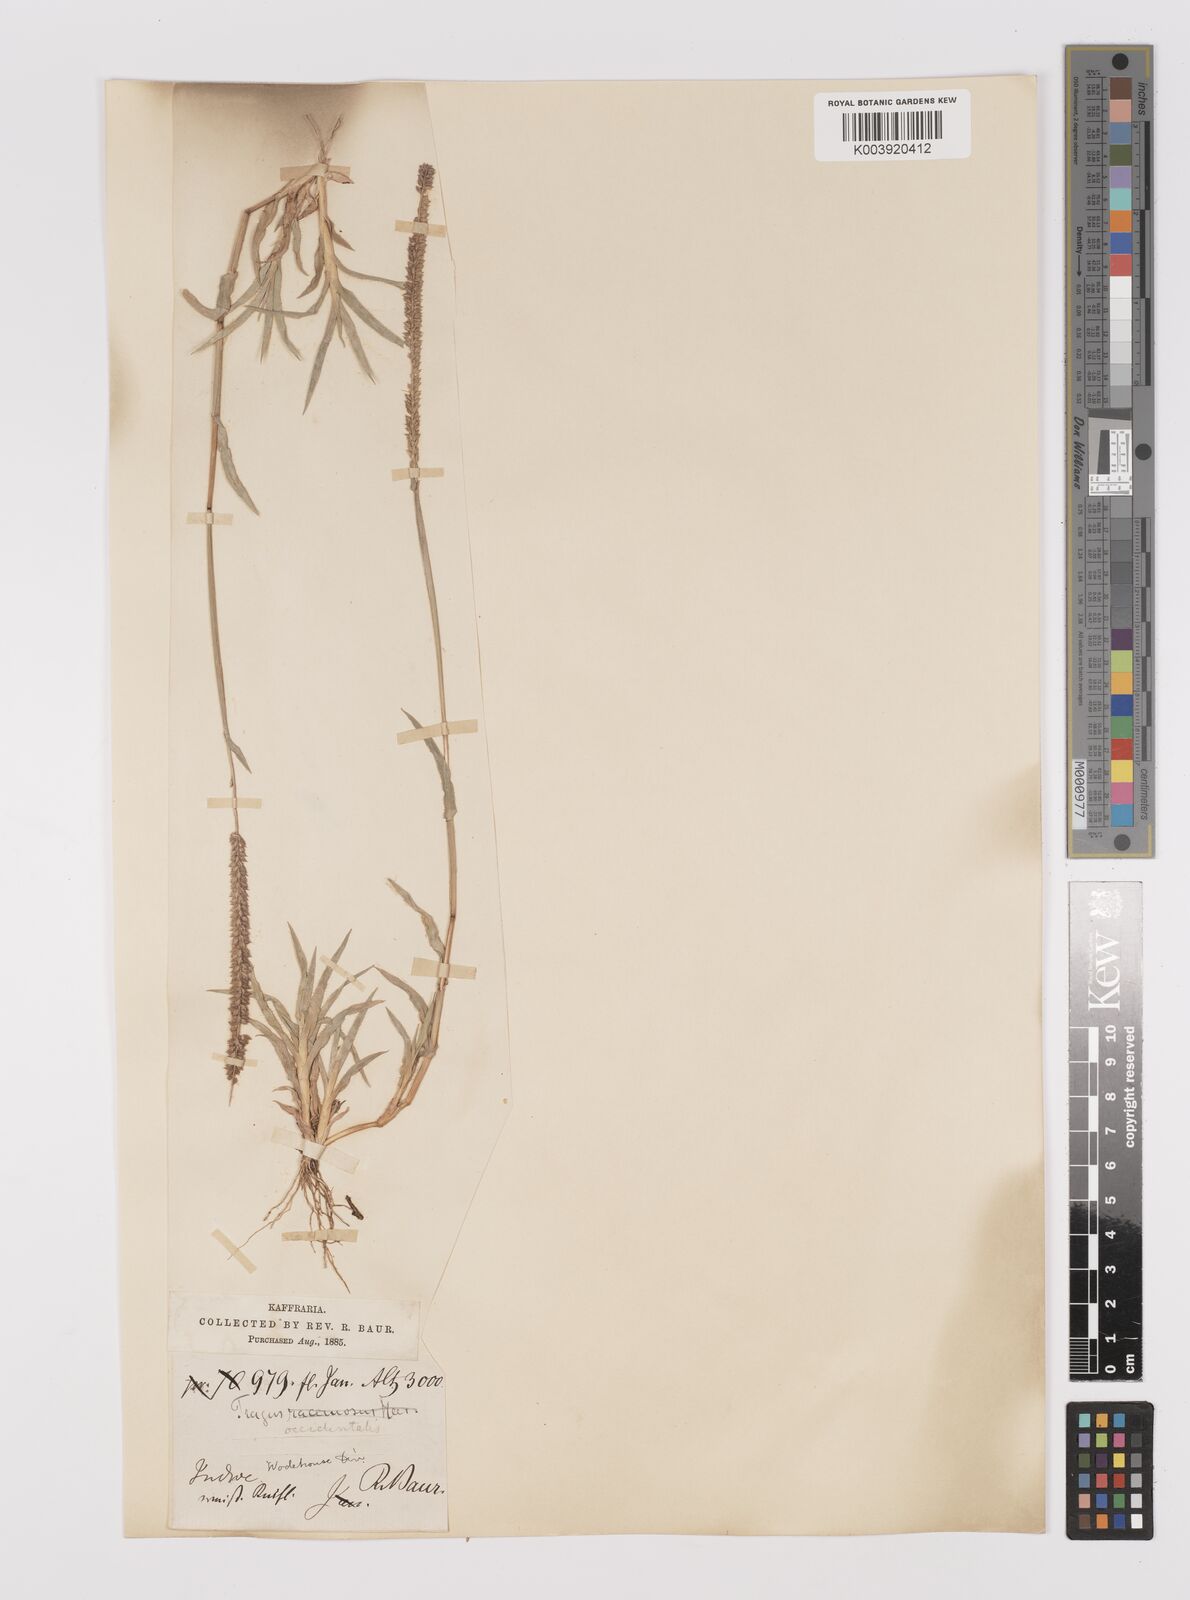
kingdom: Plantae
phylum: Tracheophyta
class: Liliopsida
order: Poales
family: Poaceae
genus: Tragus
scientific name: Tragus berteronianus
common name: African bur-grass
